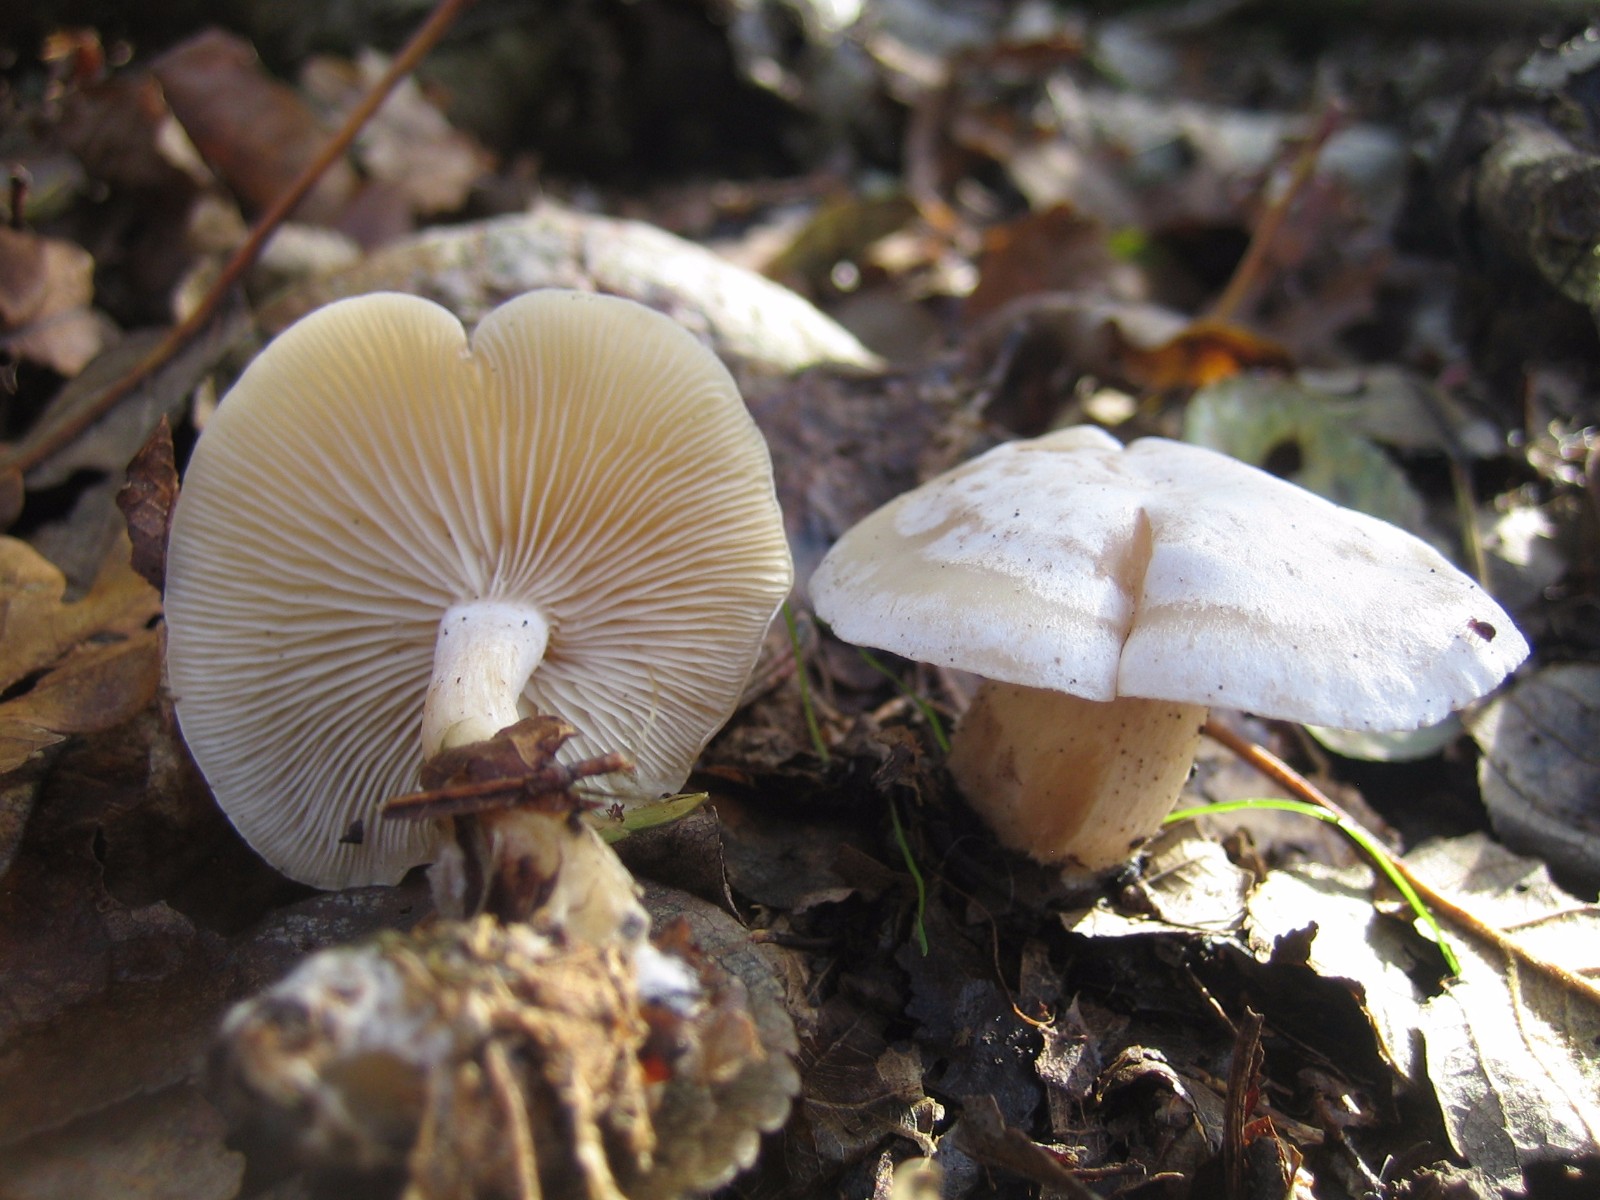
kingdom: Fungi
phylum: Basidiomycota
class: Agaricomycetes
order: Agaricales
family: Tricholomataceae
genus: Clitocybe
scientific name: Clitocybe phyllophila
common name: løv-tragthat
